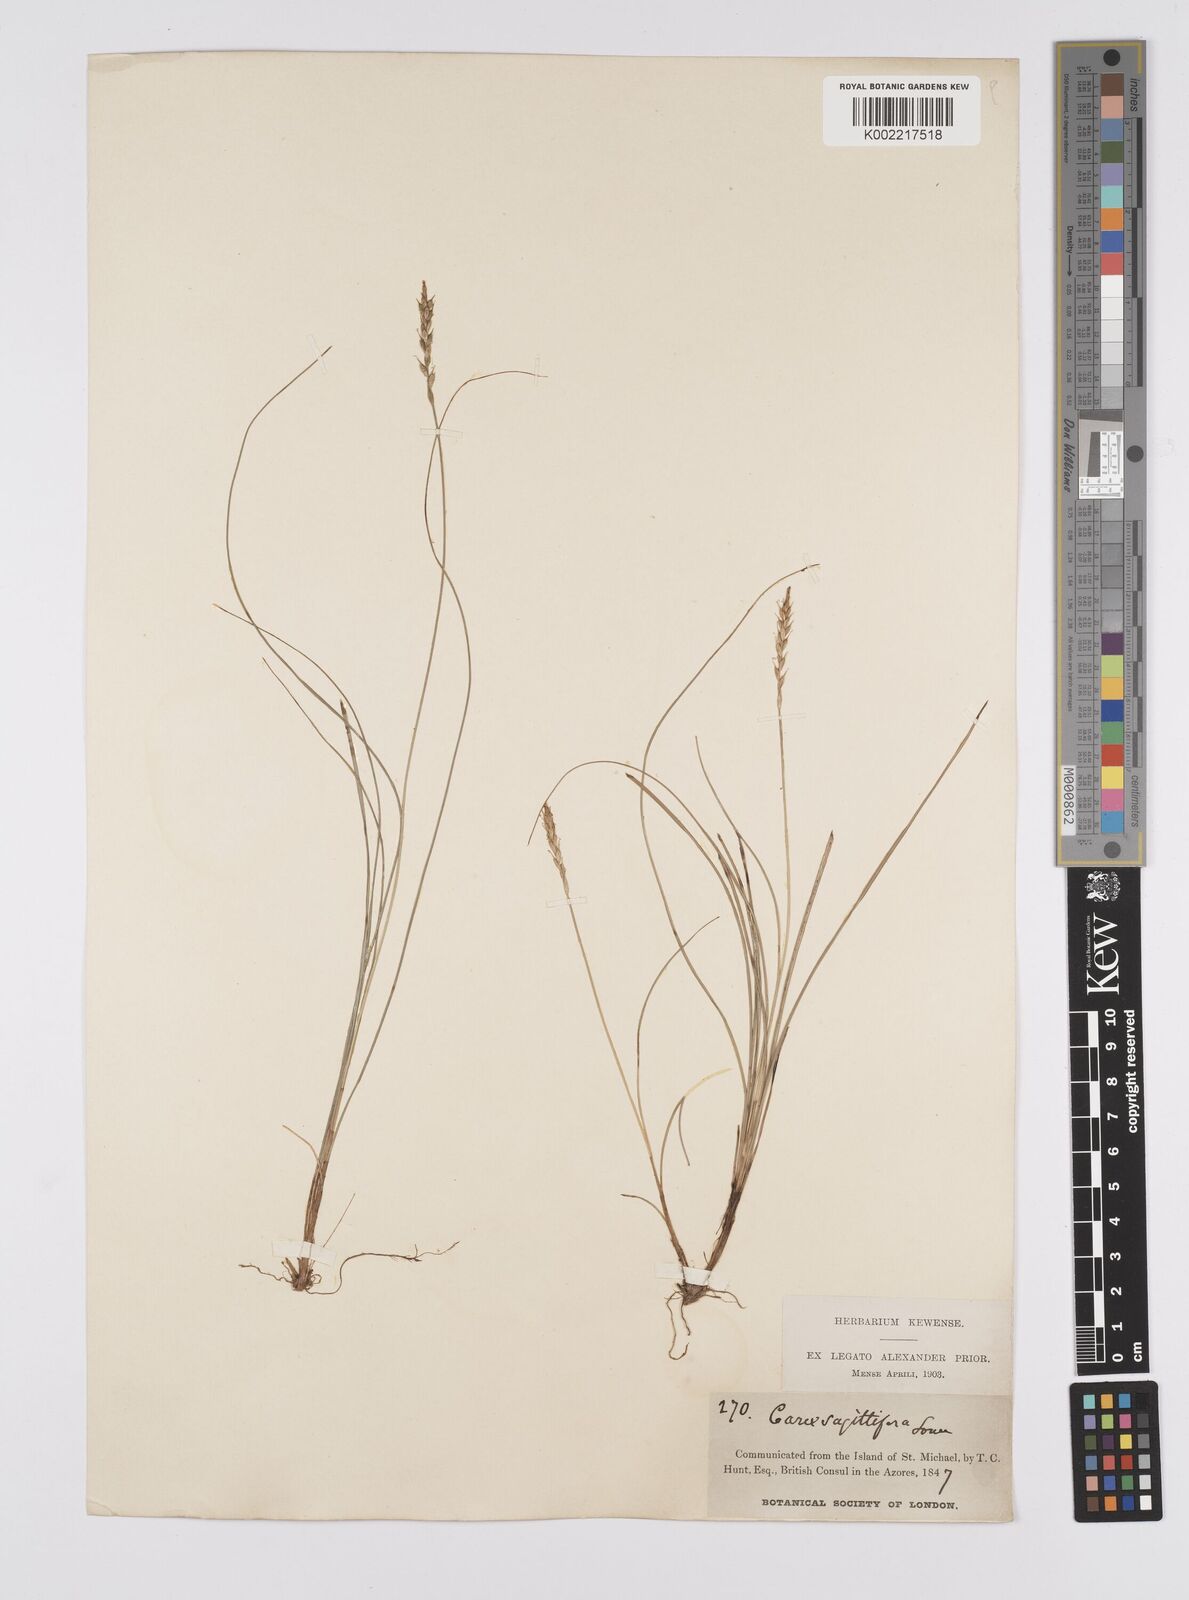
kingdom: Plantae
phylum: Tracheophyta
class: Liliopsida
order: Poales
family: Cyperaceae
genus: Carex
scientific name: Carex peregrina
